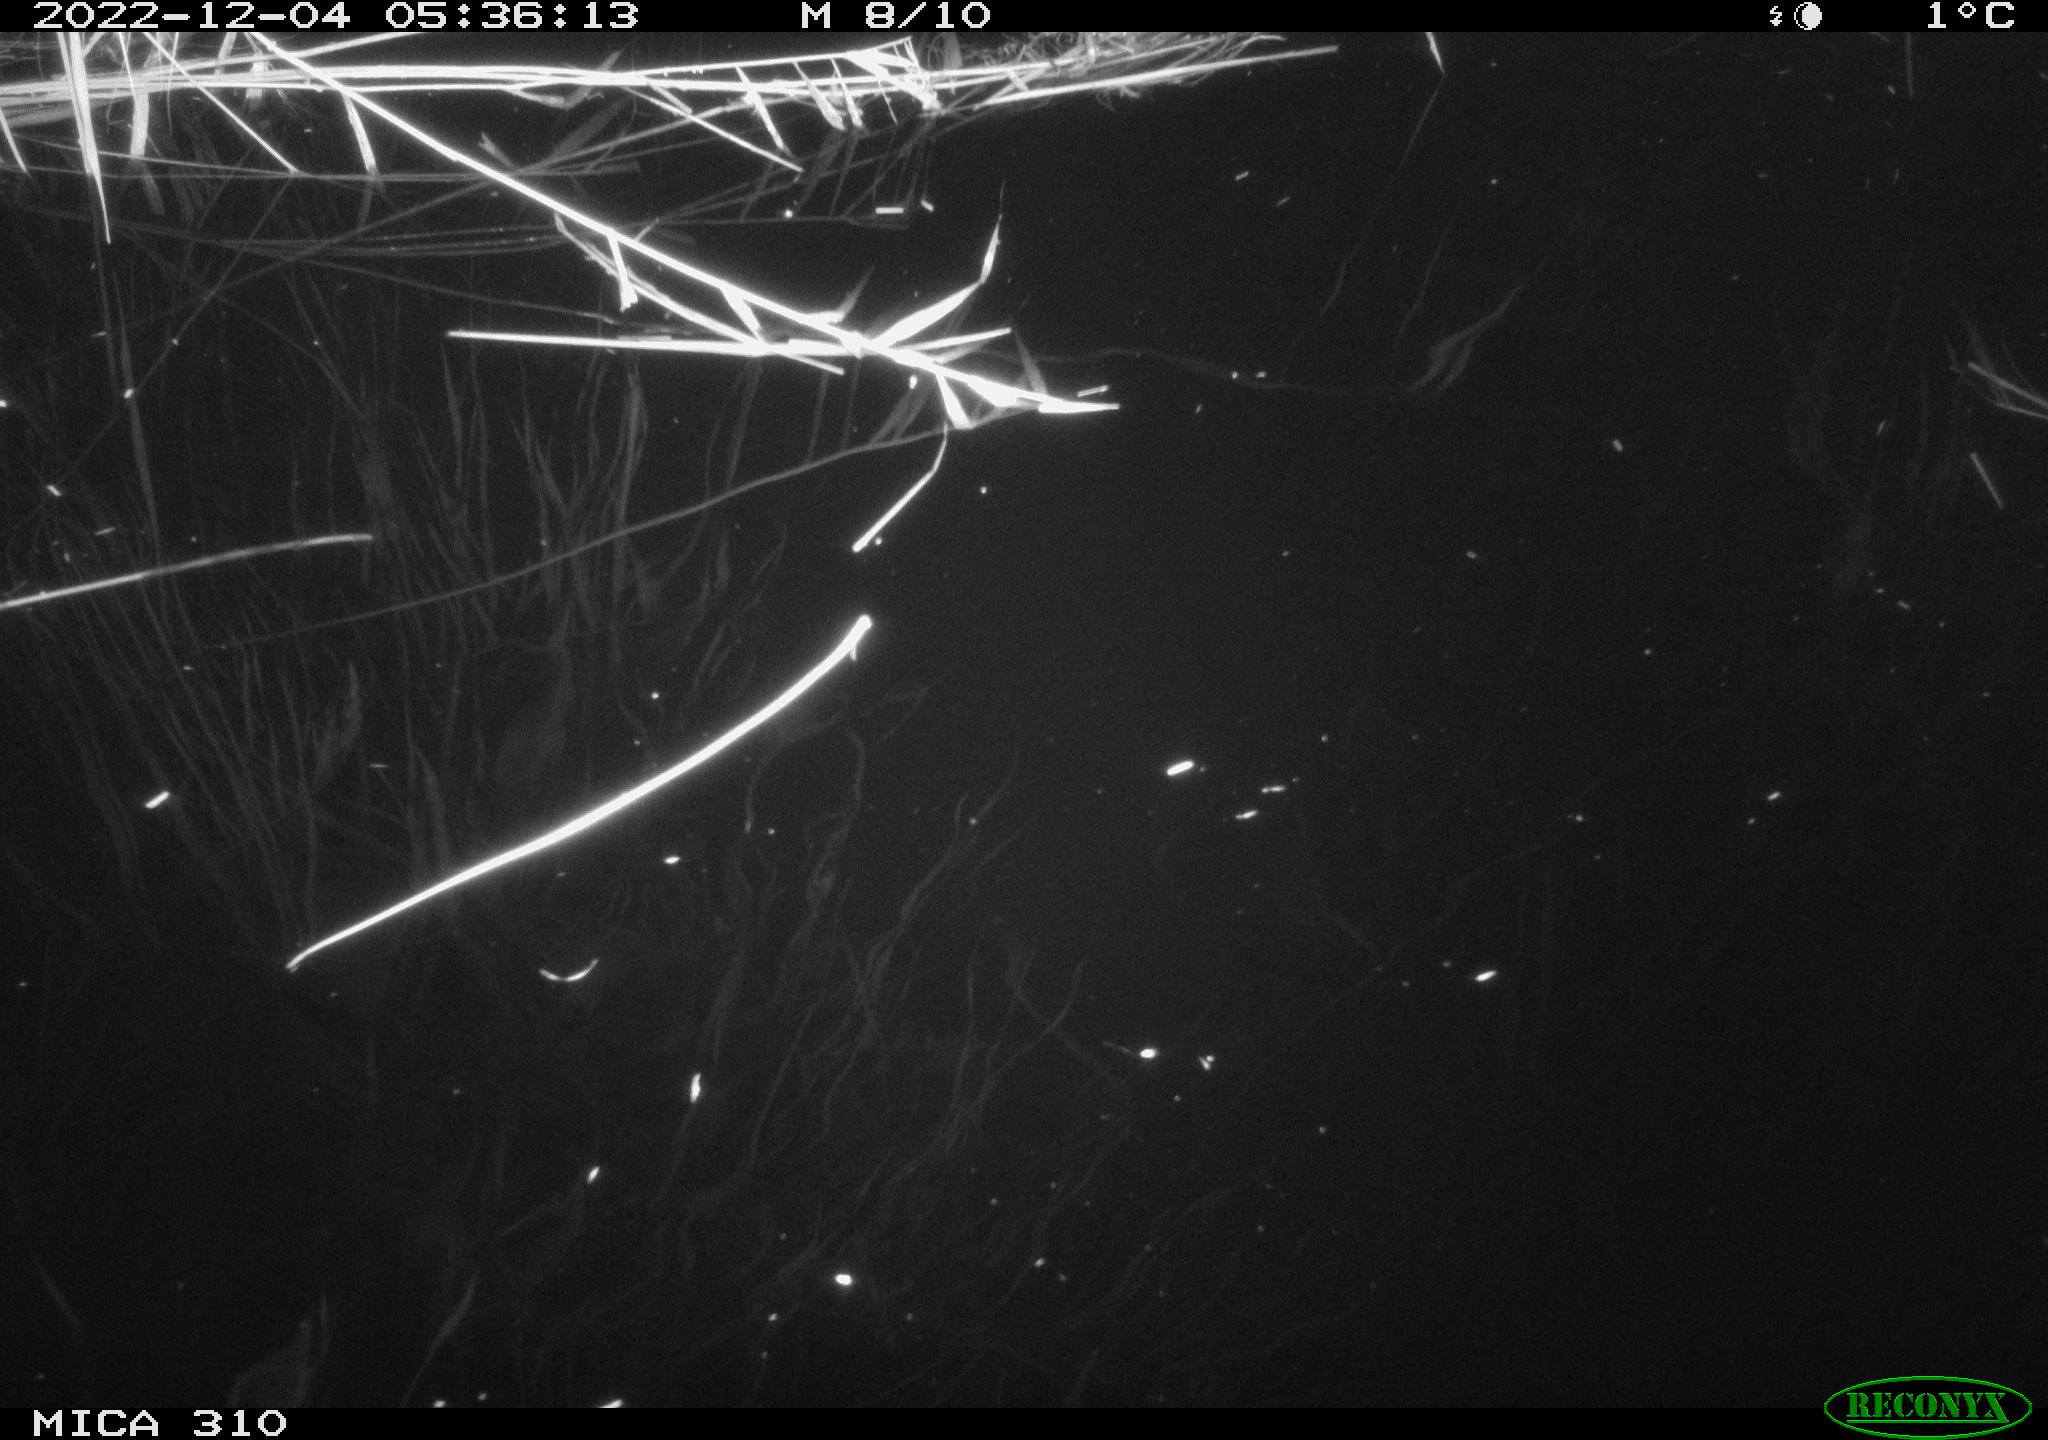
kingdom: Animalia
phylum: Chordata
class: Mammalia
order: Rodentia
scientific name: Rodentia
